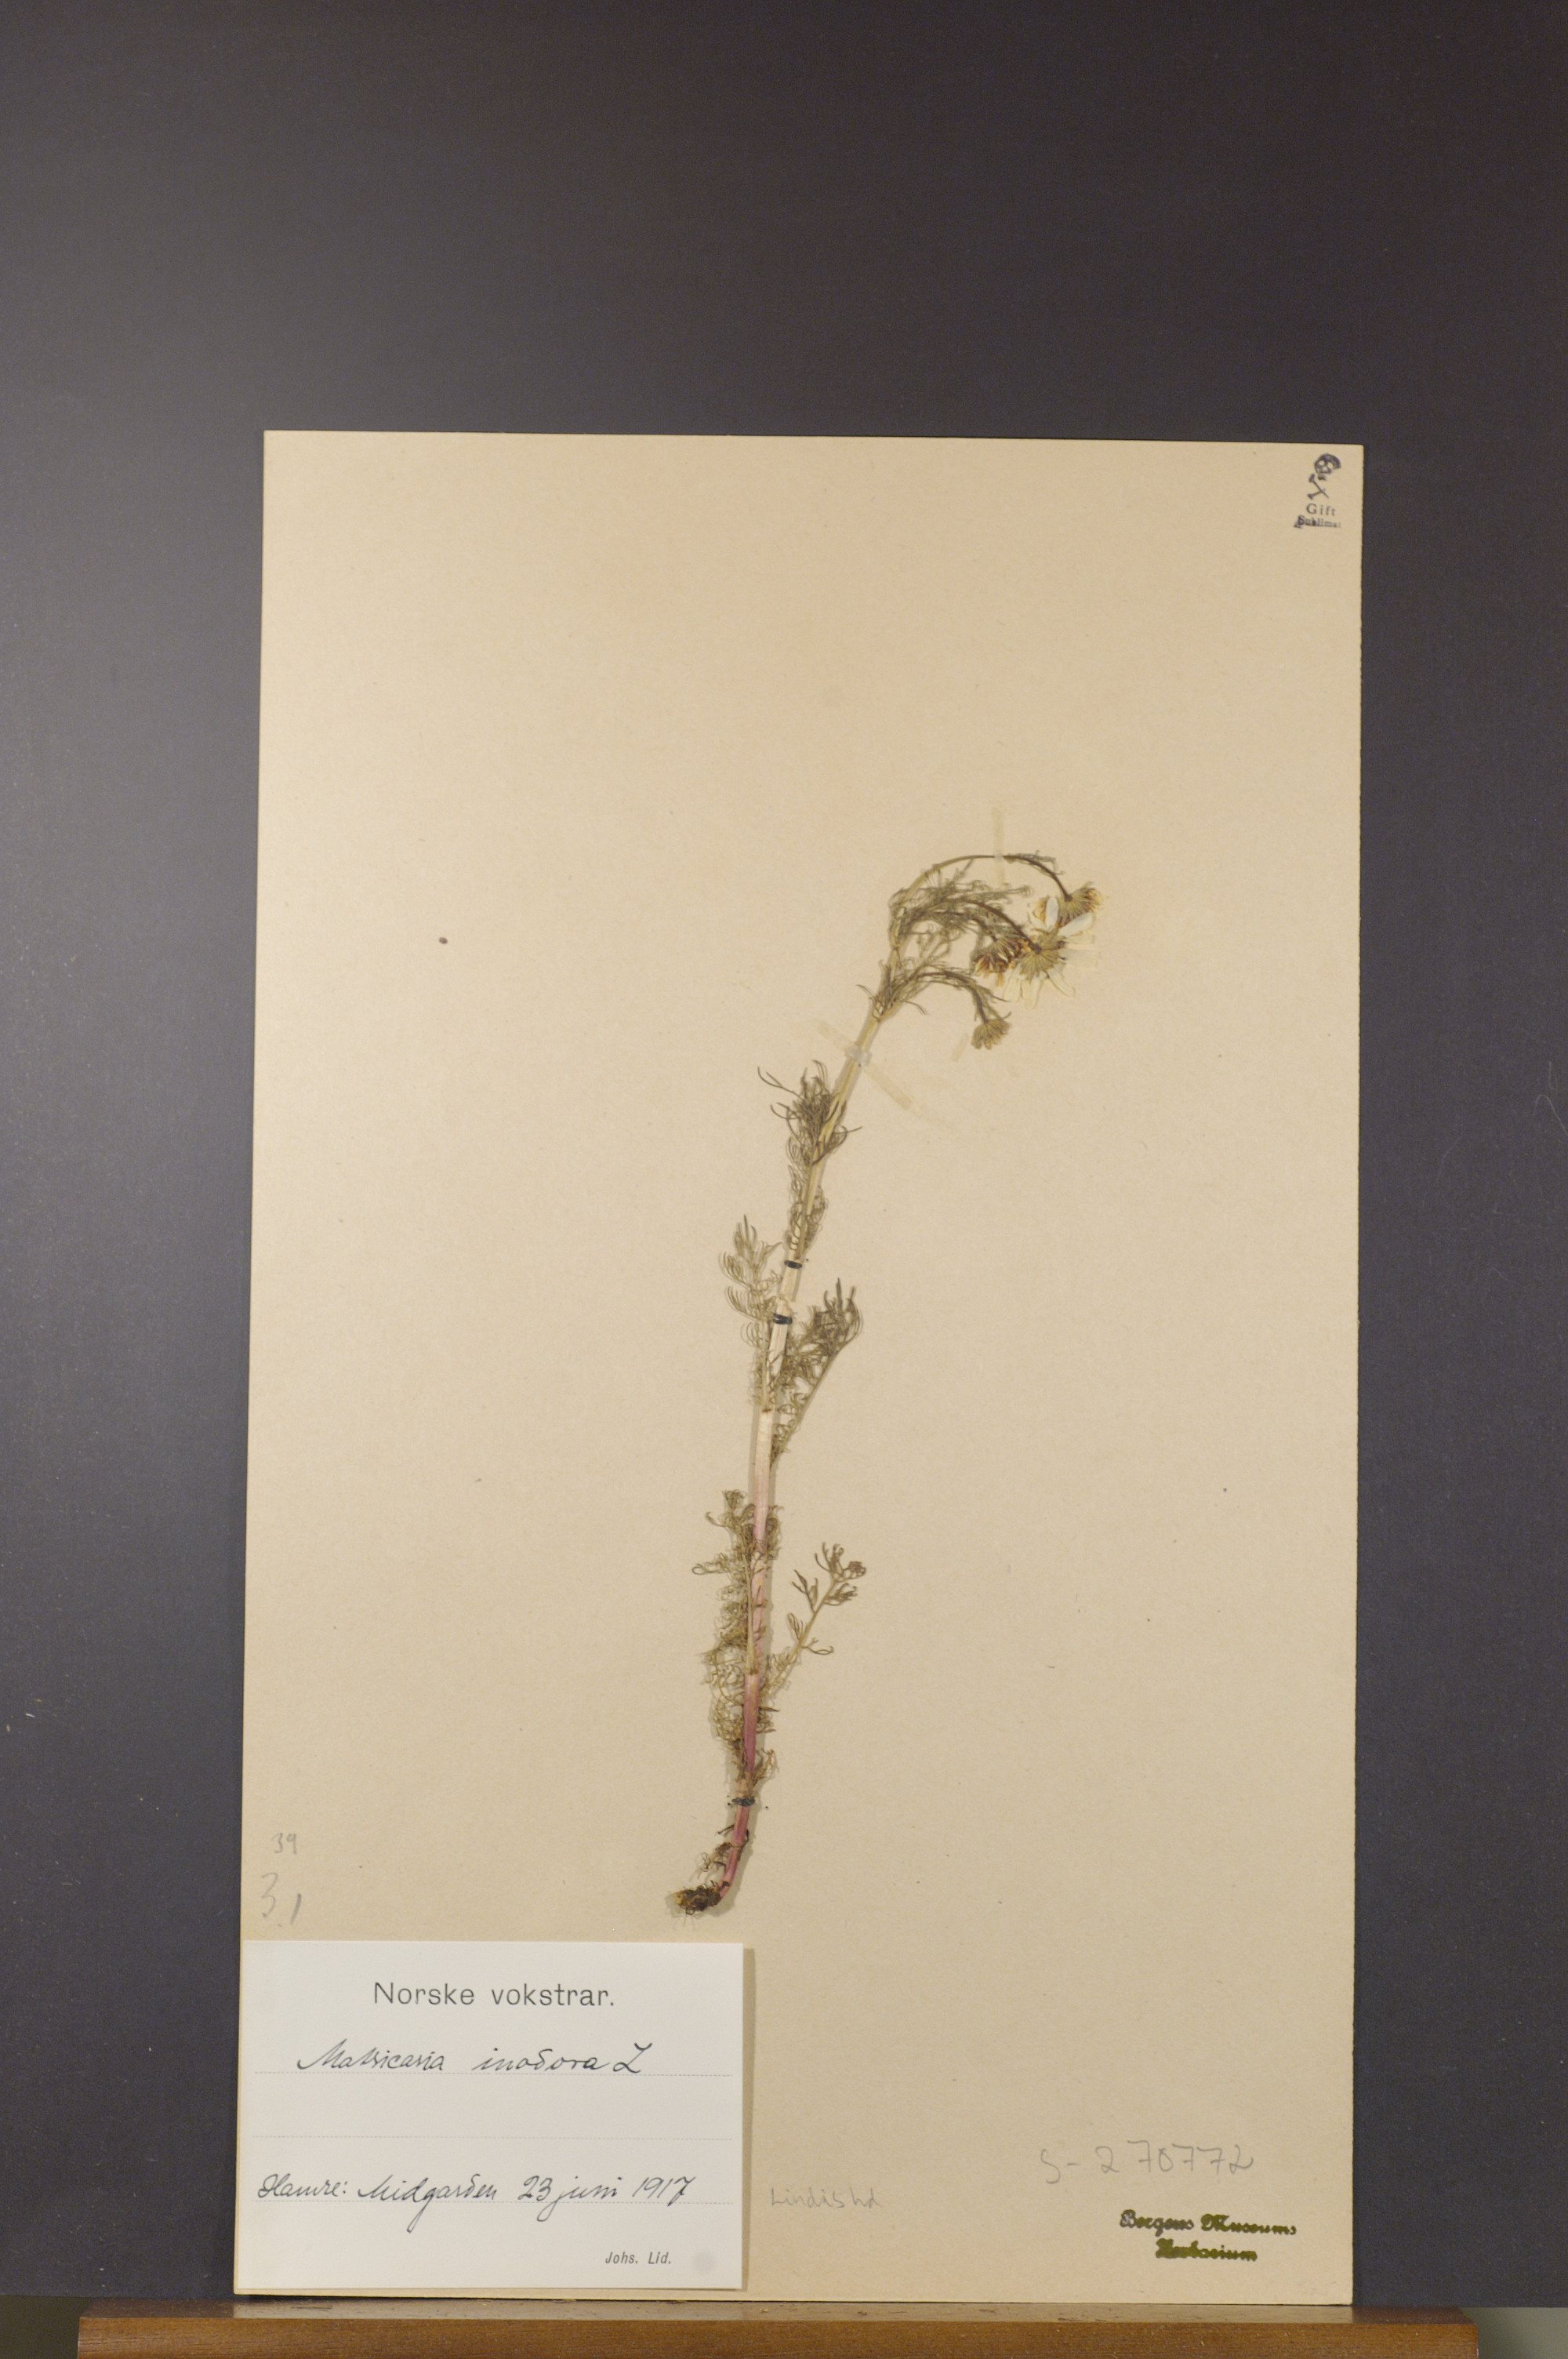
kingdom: Plantae
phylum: Tracheophyta
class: Magnoliopsida
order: Asterales
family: Asteraceae
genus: Tripleurospermum
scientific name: Tripleurospermum inodorum
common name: Scentless mayweed
